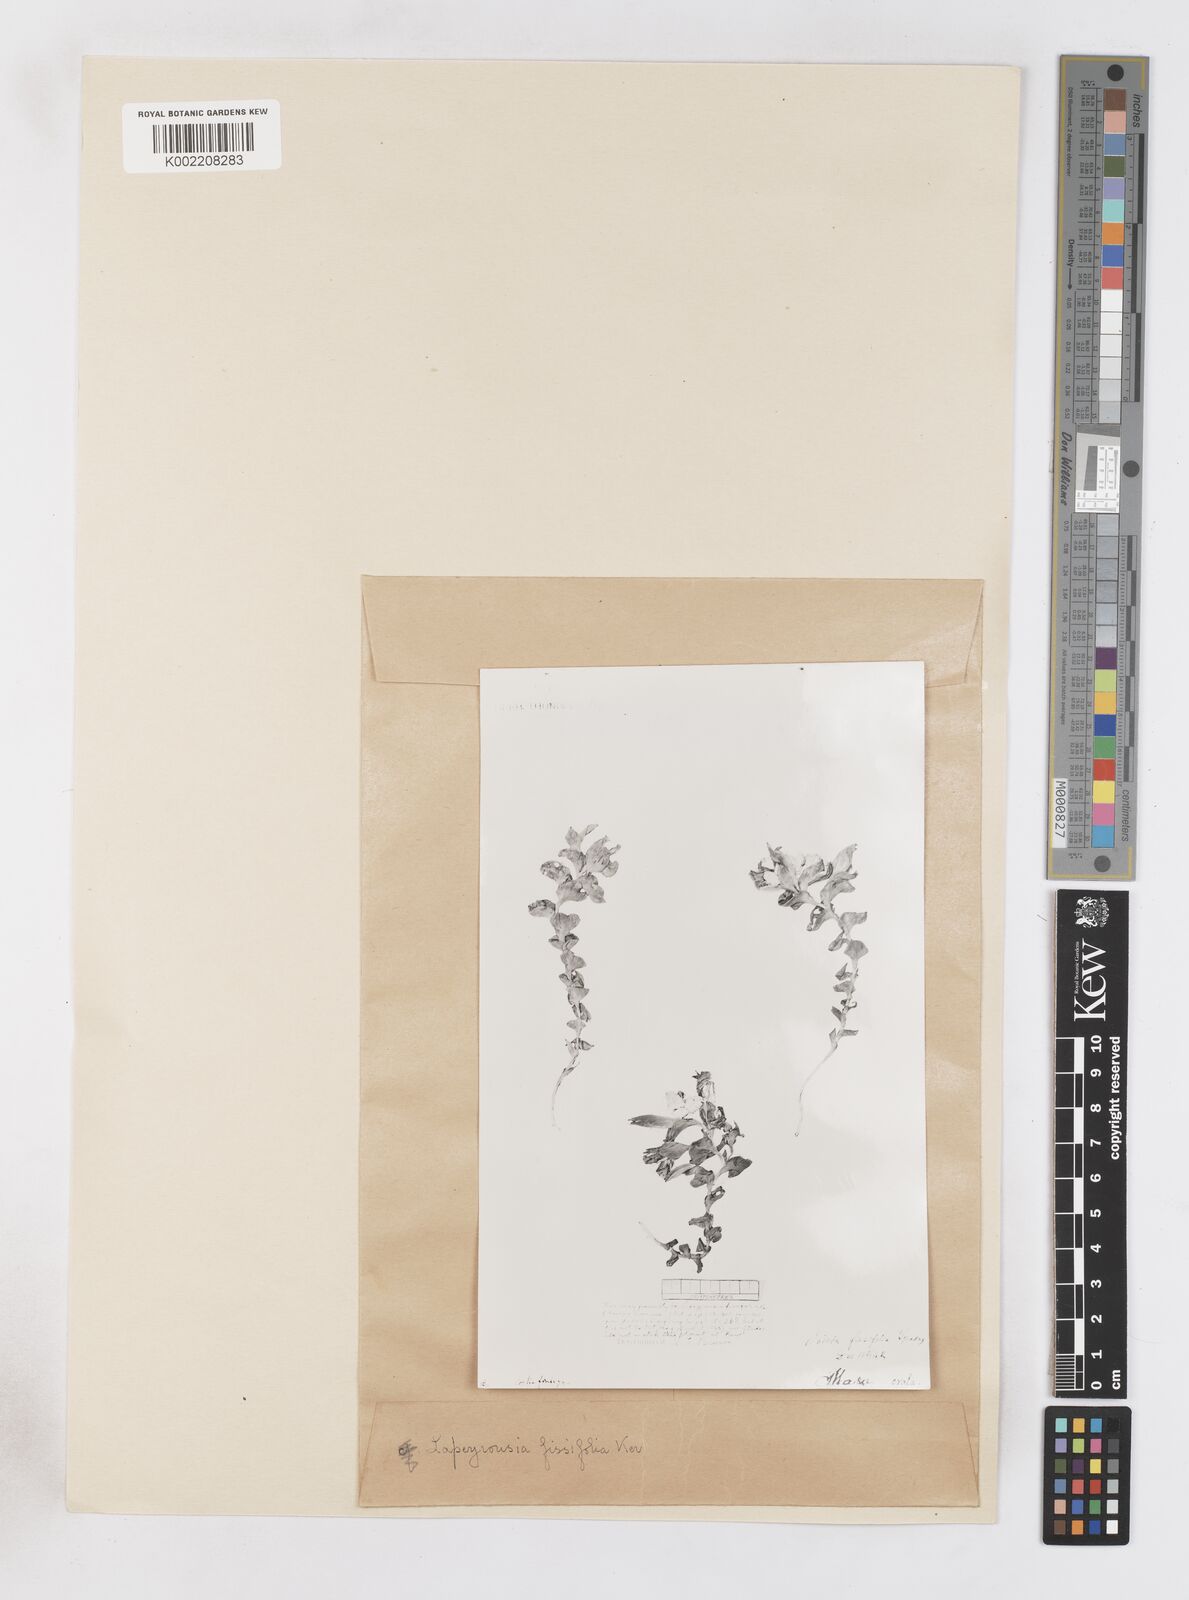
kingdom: Plantae
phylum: Tracheophyta
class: Liliopsida
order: Asparagales
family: Iridaceae
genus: Lapeirousia
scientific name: Lapeirousia pyramidalis
